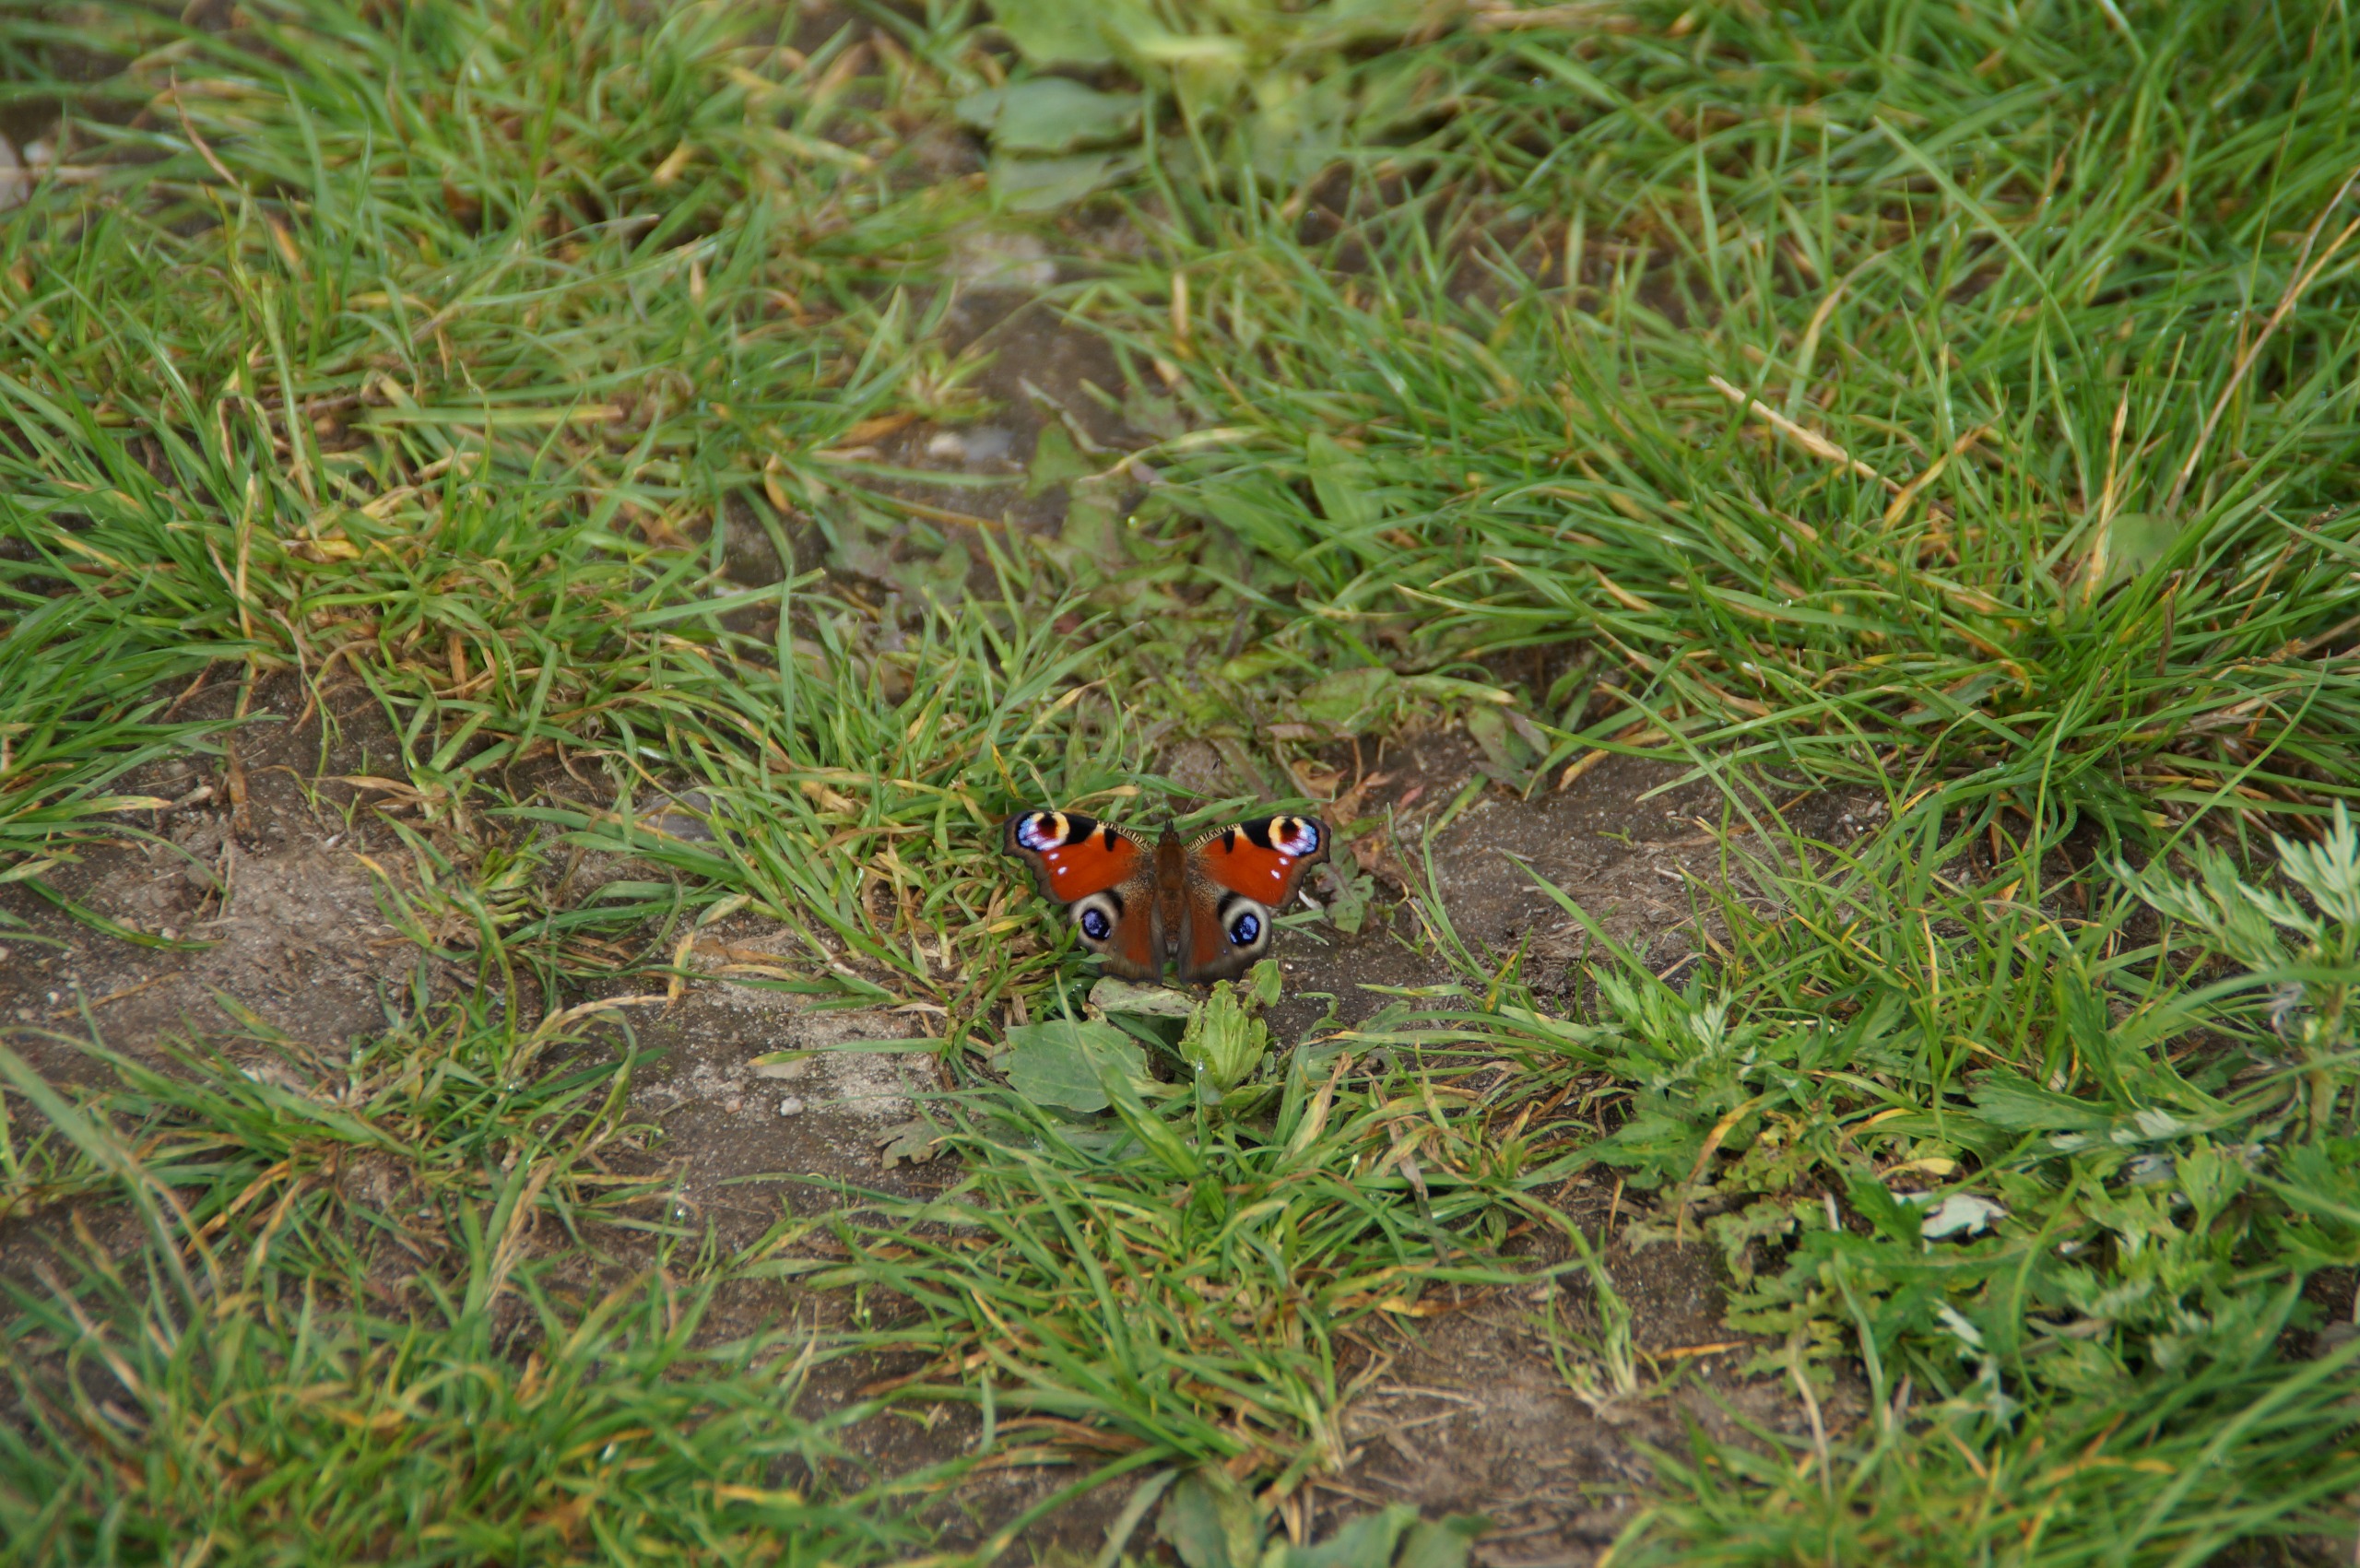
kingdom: Animalia
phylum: Arthropoda
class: Insecta
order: Lepidoptera
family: Nymphalidae
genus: Aglais
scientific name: Aglais io
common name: Dagpåfugleøje
